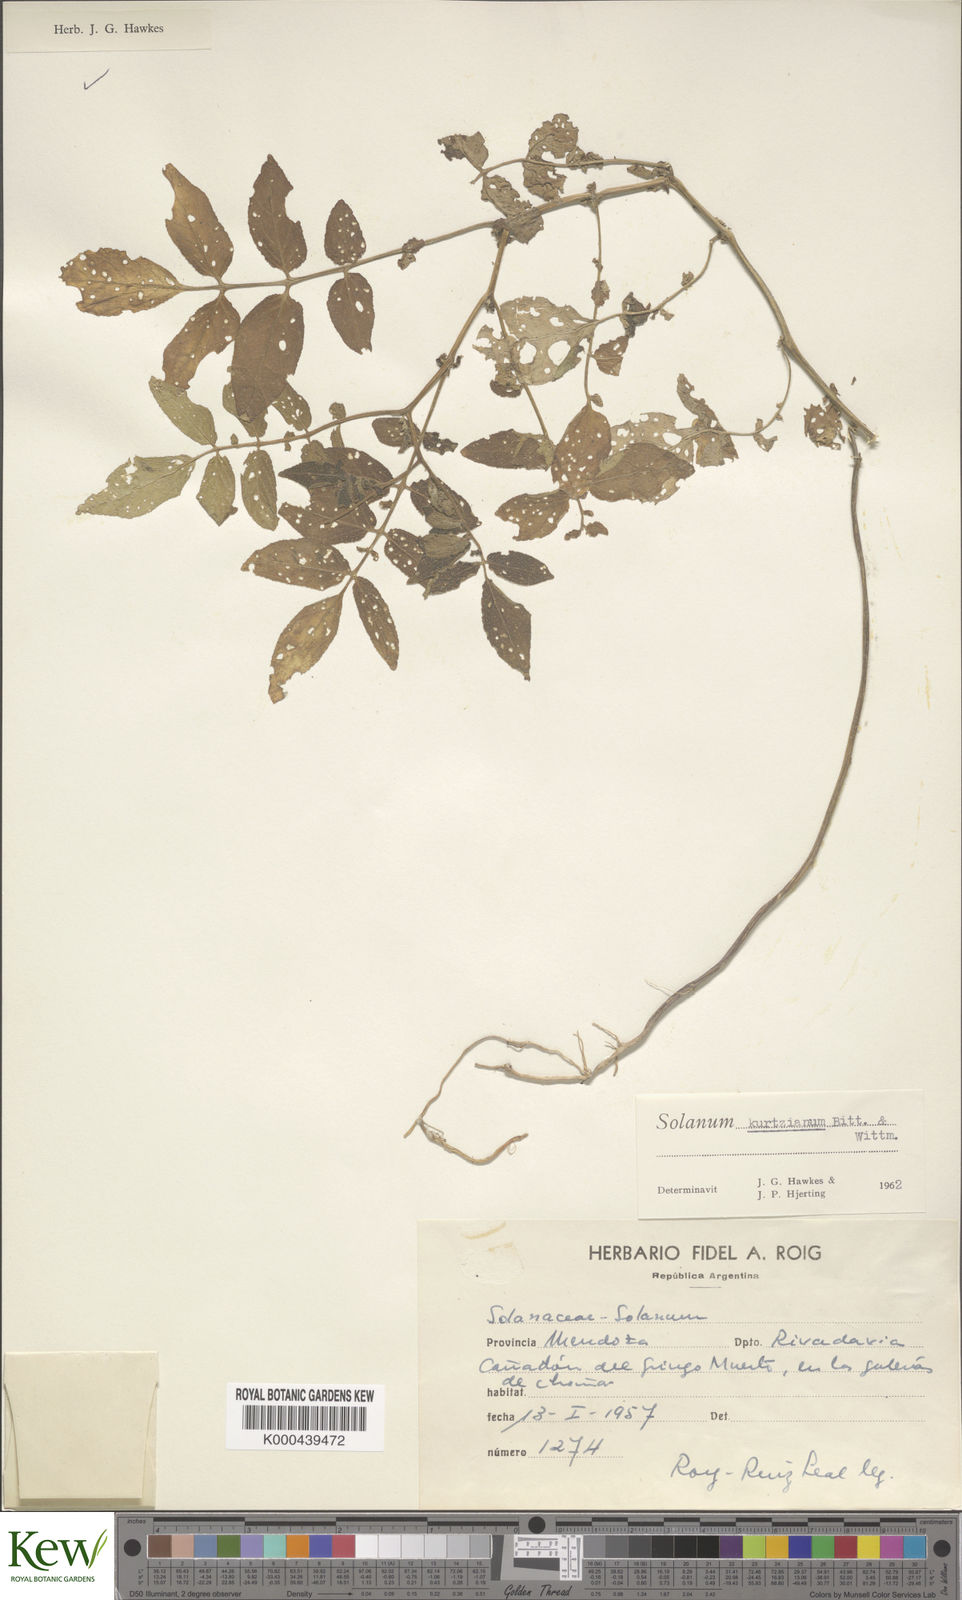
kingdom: Plantae
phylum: Tracheophyta
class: Magnoliopsida
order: Solanales
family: Solanaceae
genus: Solanum
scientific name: Solanum kurtzianum
